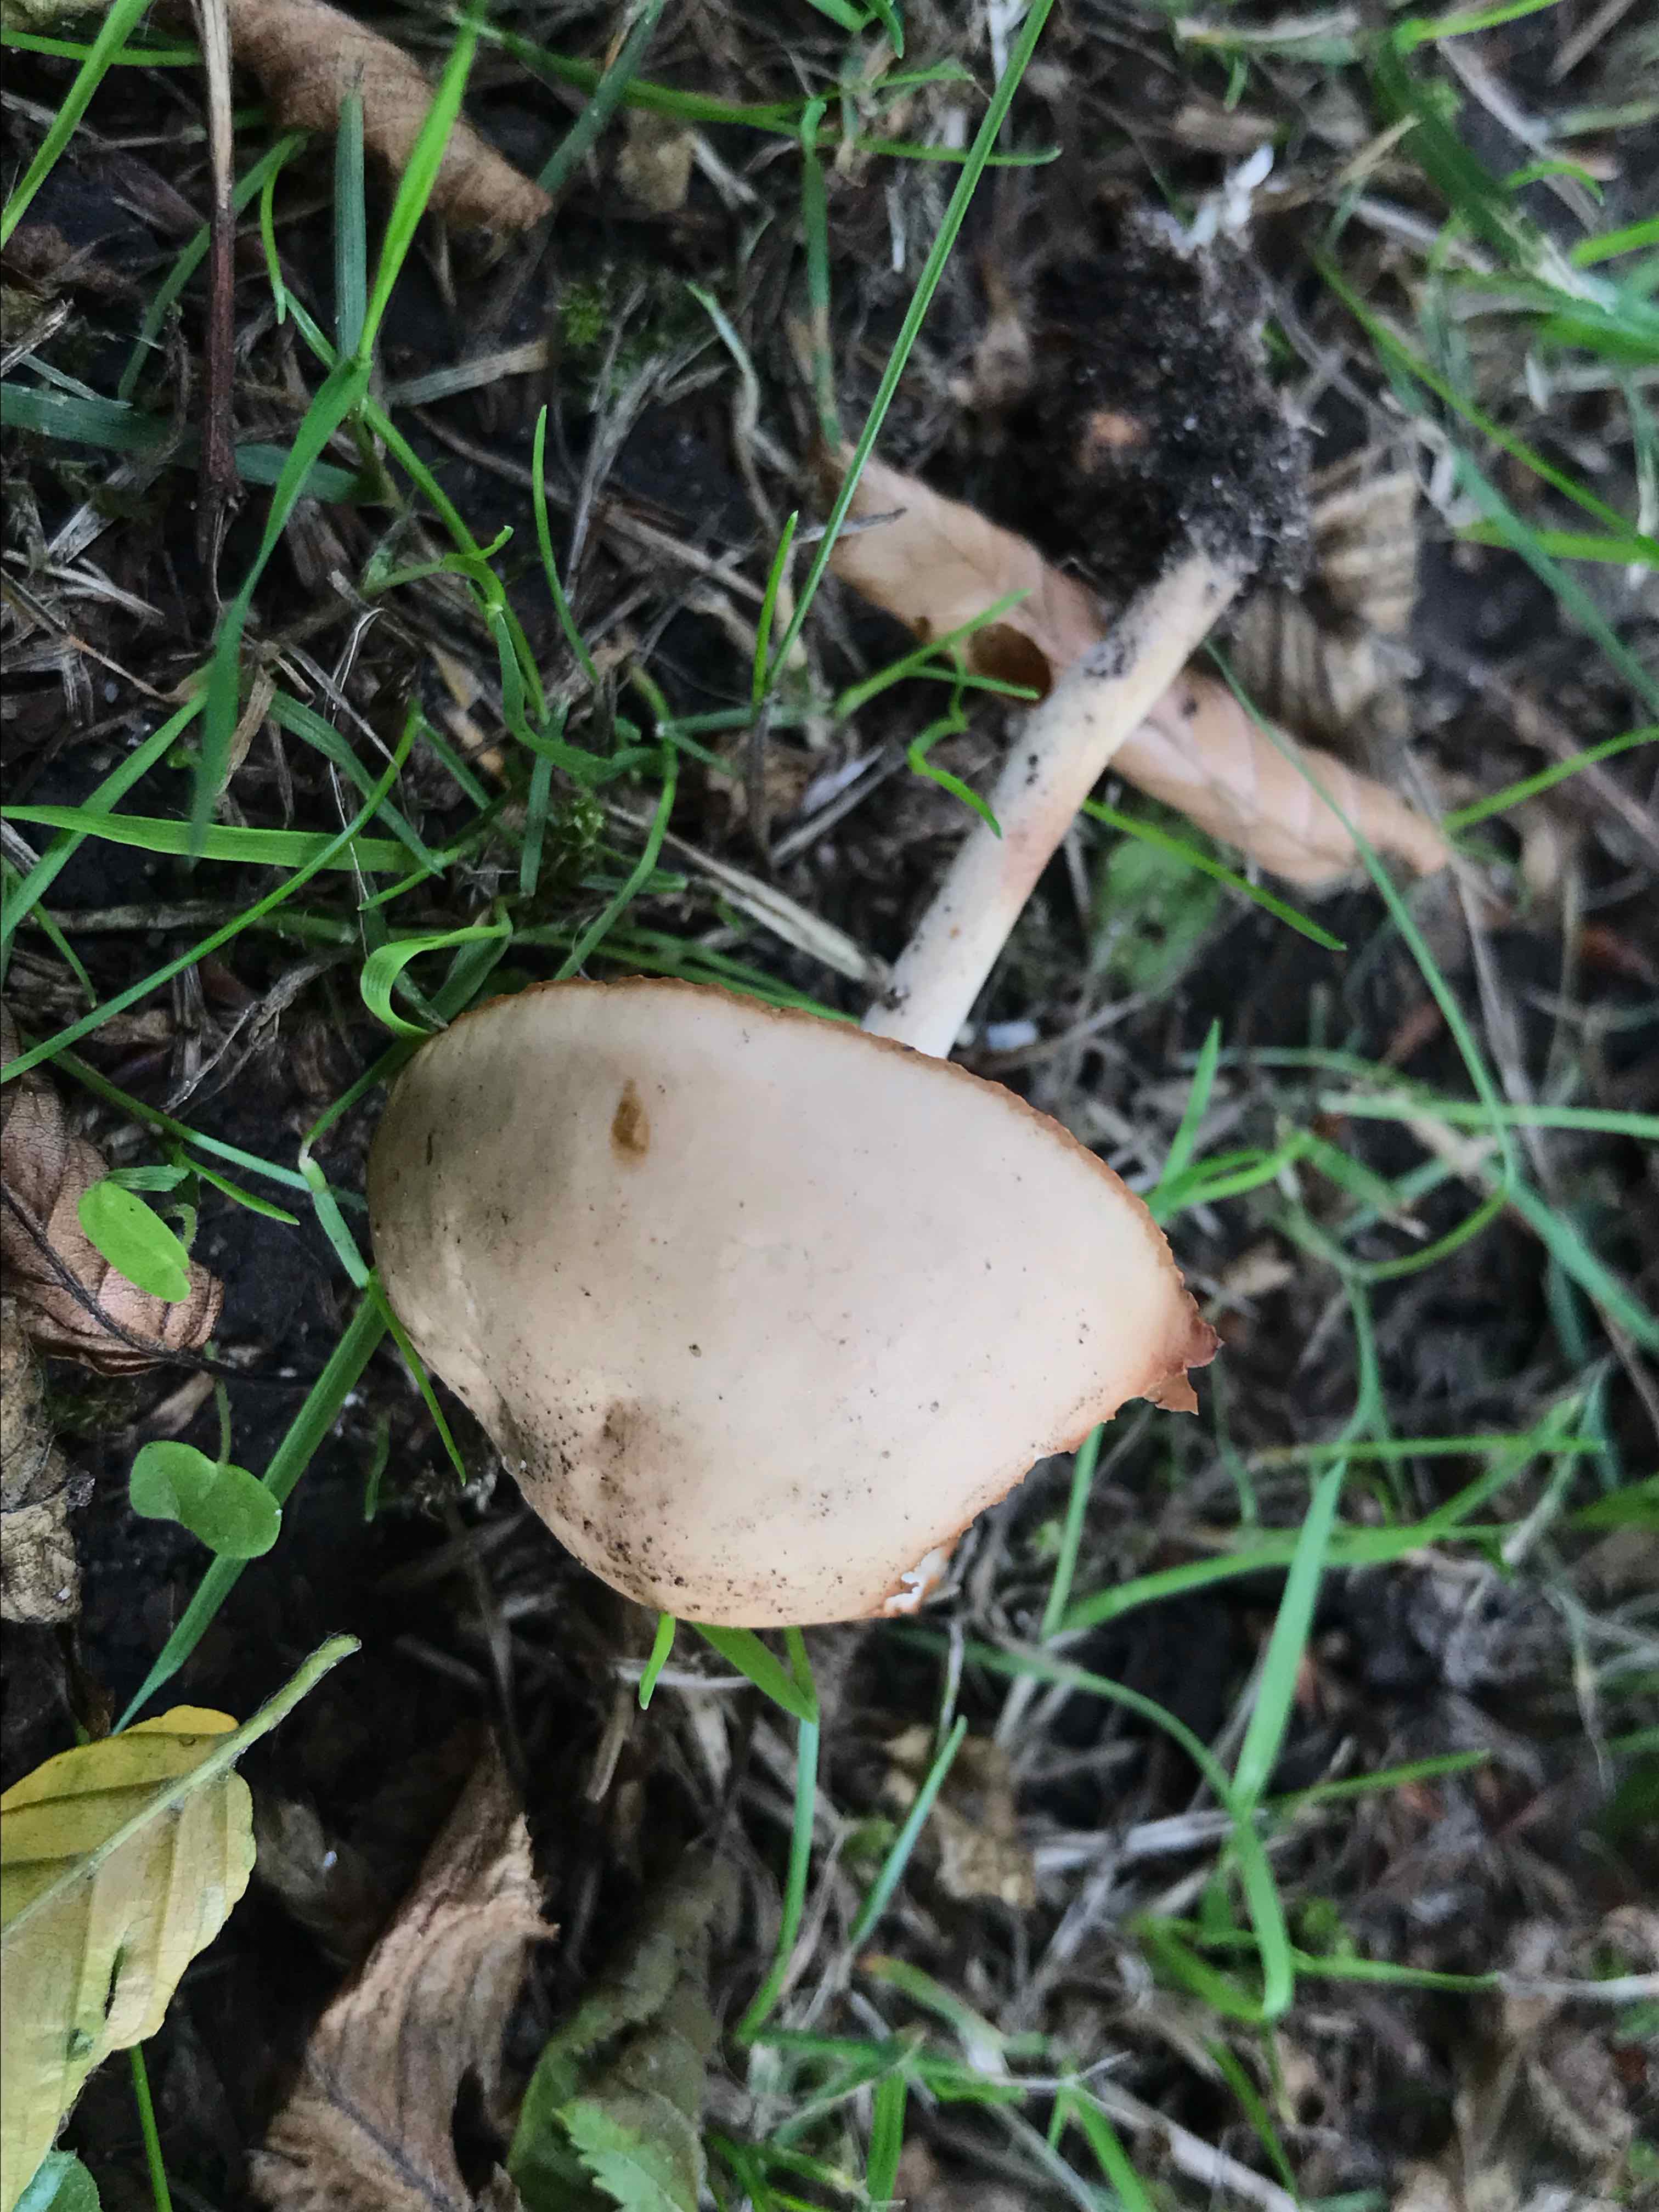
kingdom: Fungi
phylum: Basidiomycota
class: Agaricomycetes
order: Agaricales
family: Marasmiaceae
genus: Marasmius
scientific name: Marasmius oreades
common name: elledans-bruskhat
